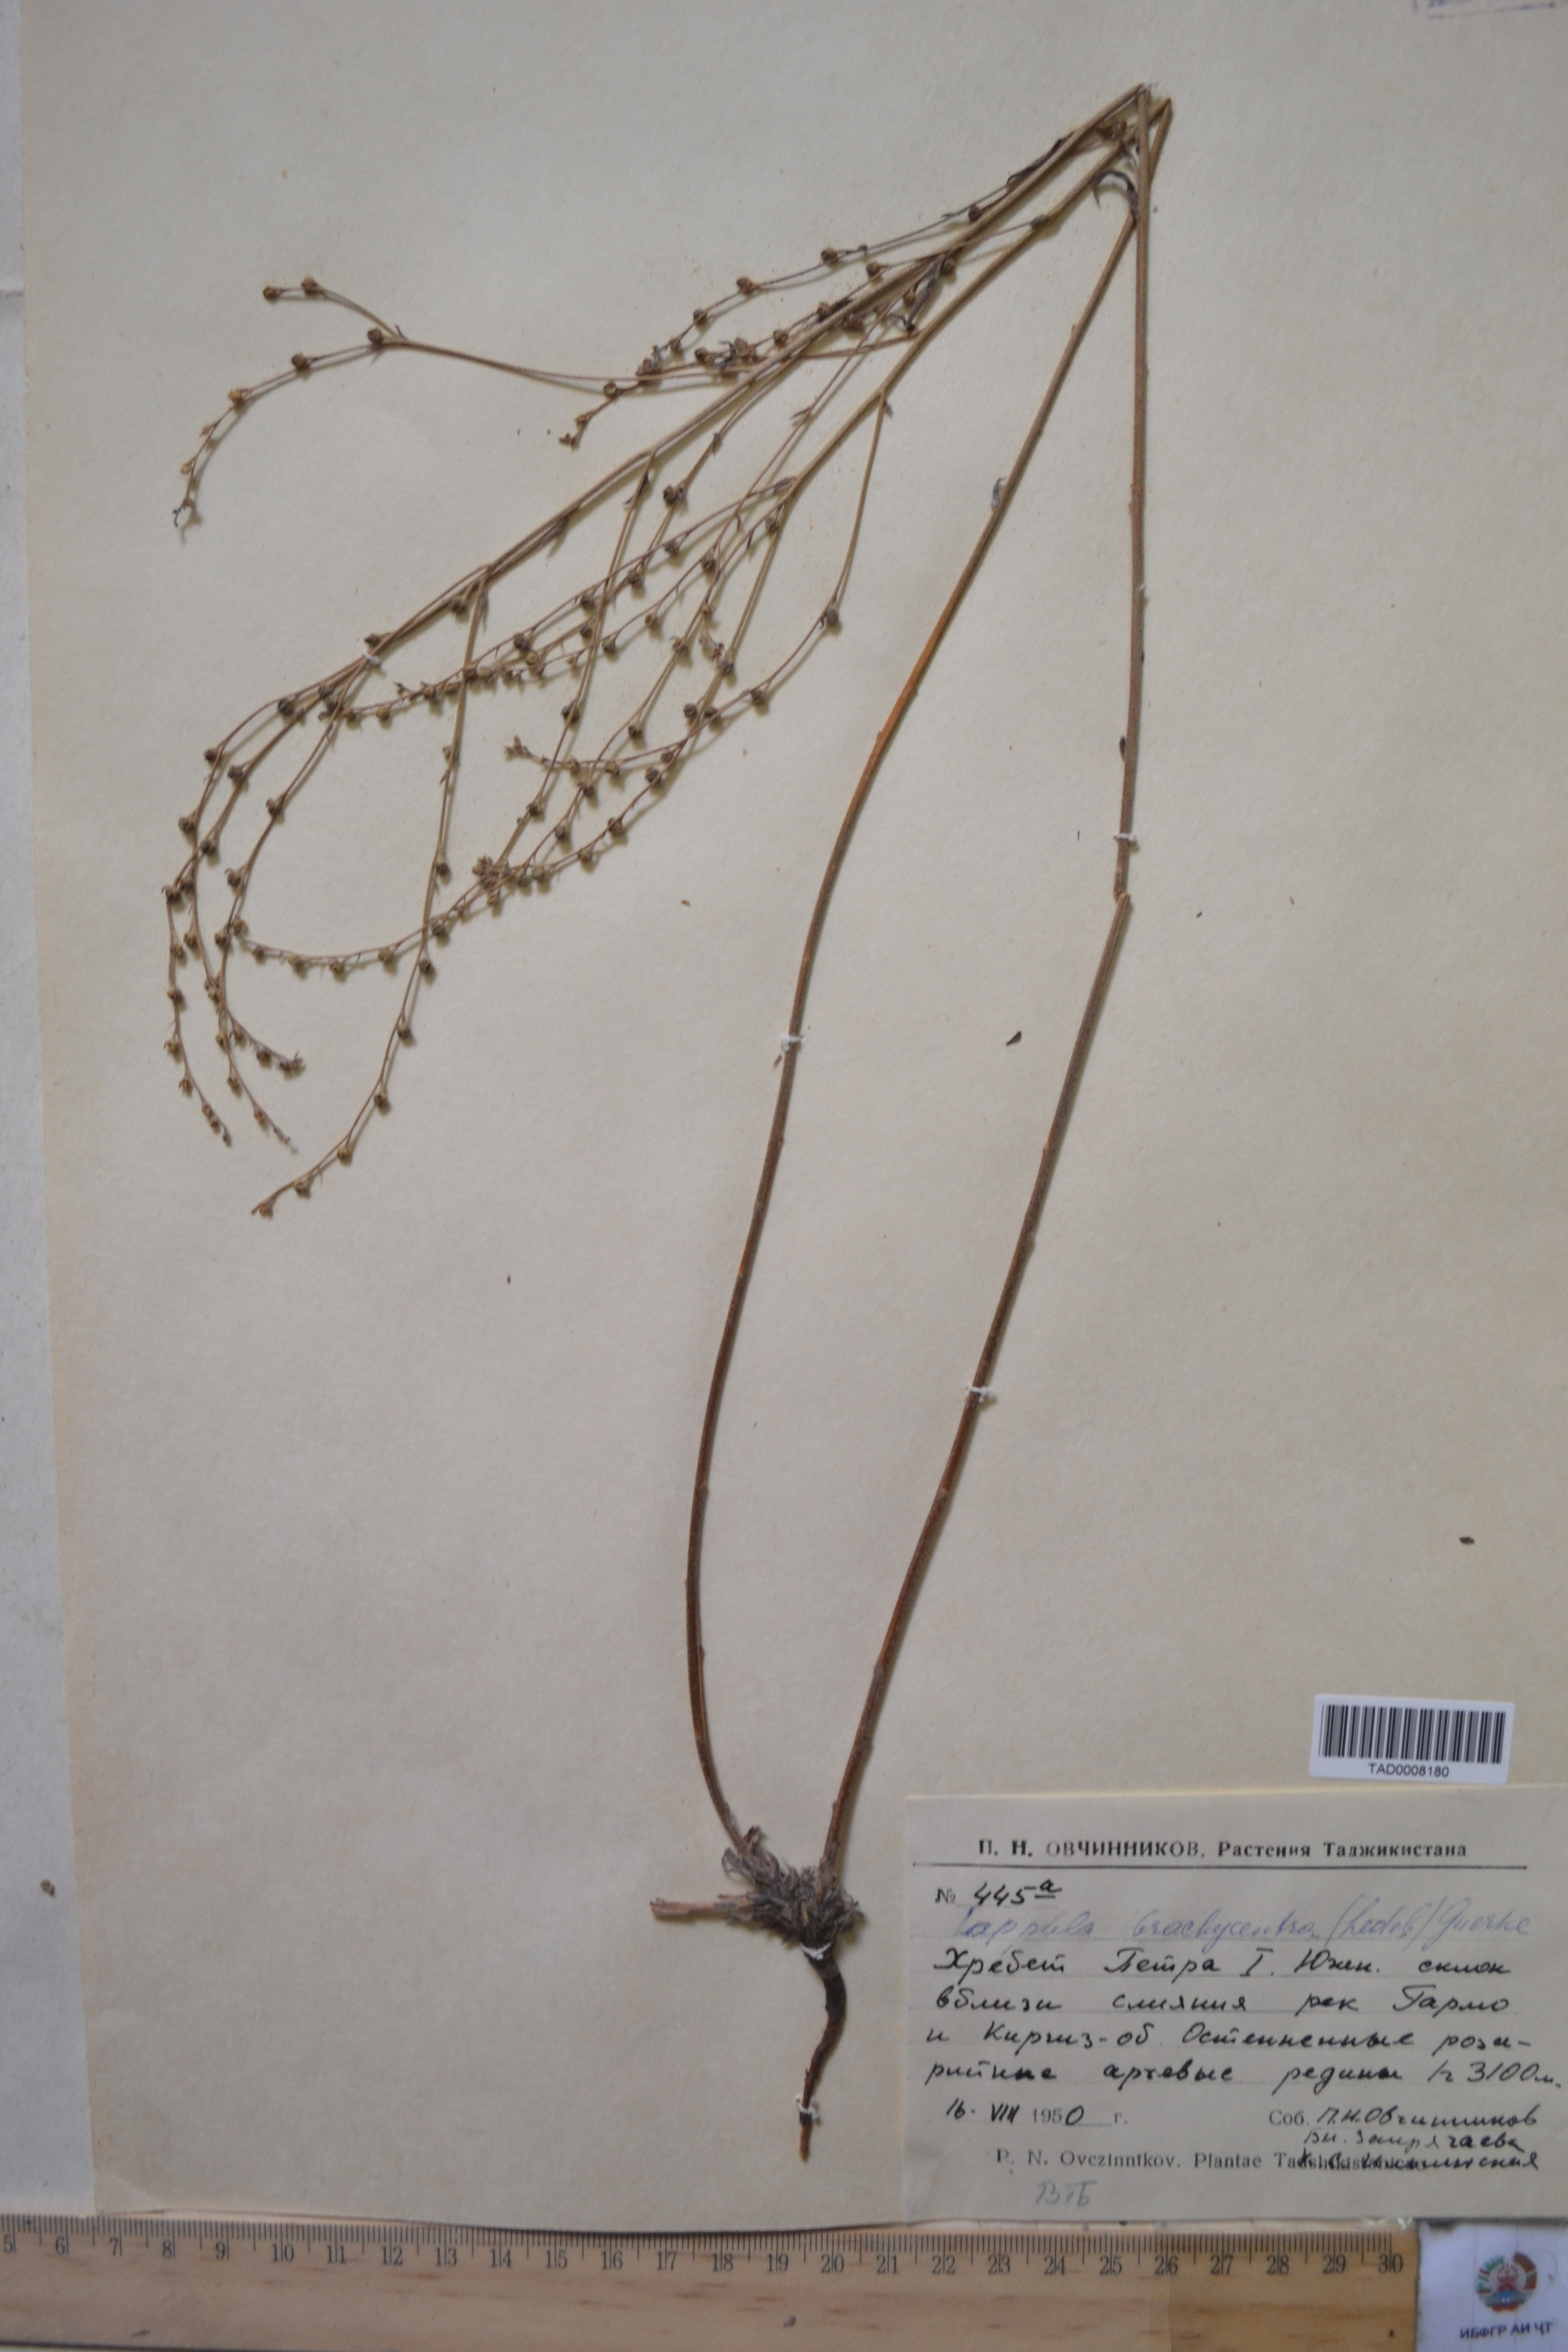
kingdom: Plantae
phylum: Tracheophyta
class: Magnoliopsida
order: Boraginales
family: Boraginaceae
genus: Lappula
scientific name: Lappula brachycentra
